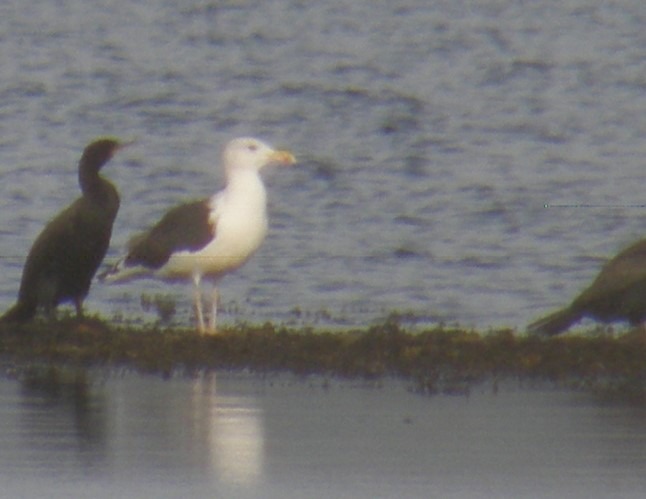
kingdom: Animalia
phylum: Chordata
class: Aves
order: Charadriiformes
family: Laridae
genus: Larus
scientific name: Larus marinus
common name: Svartbag
